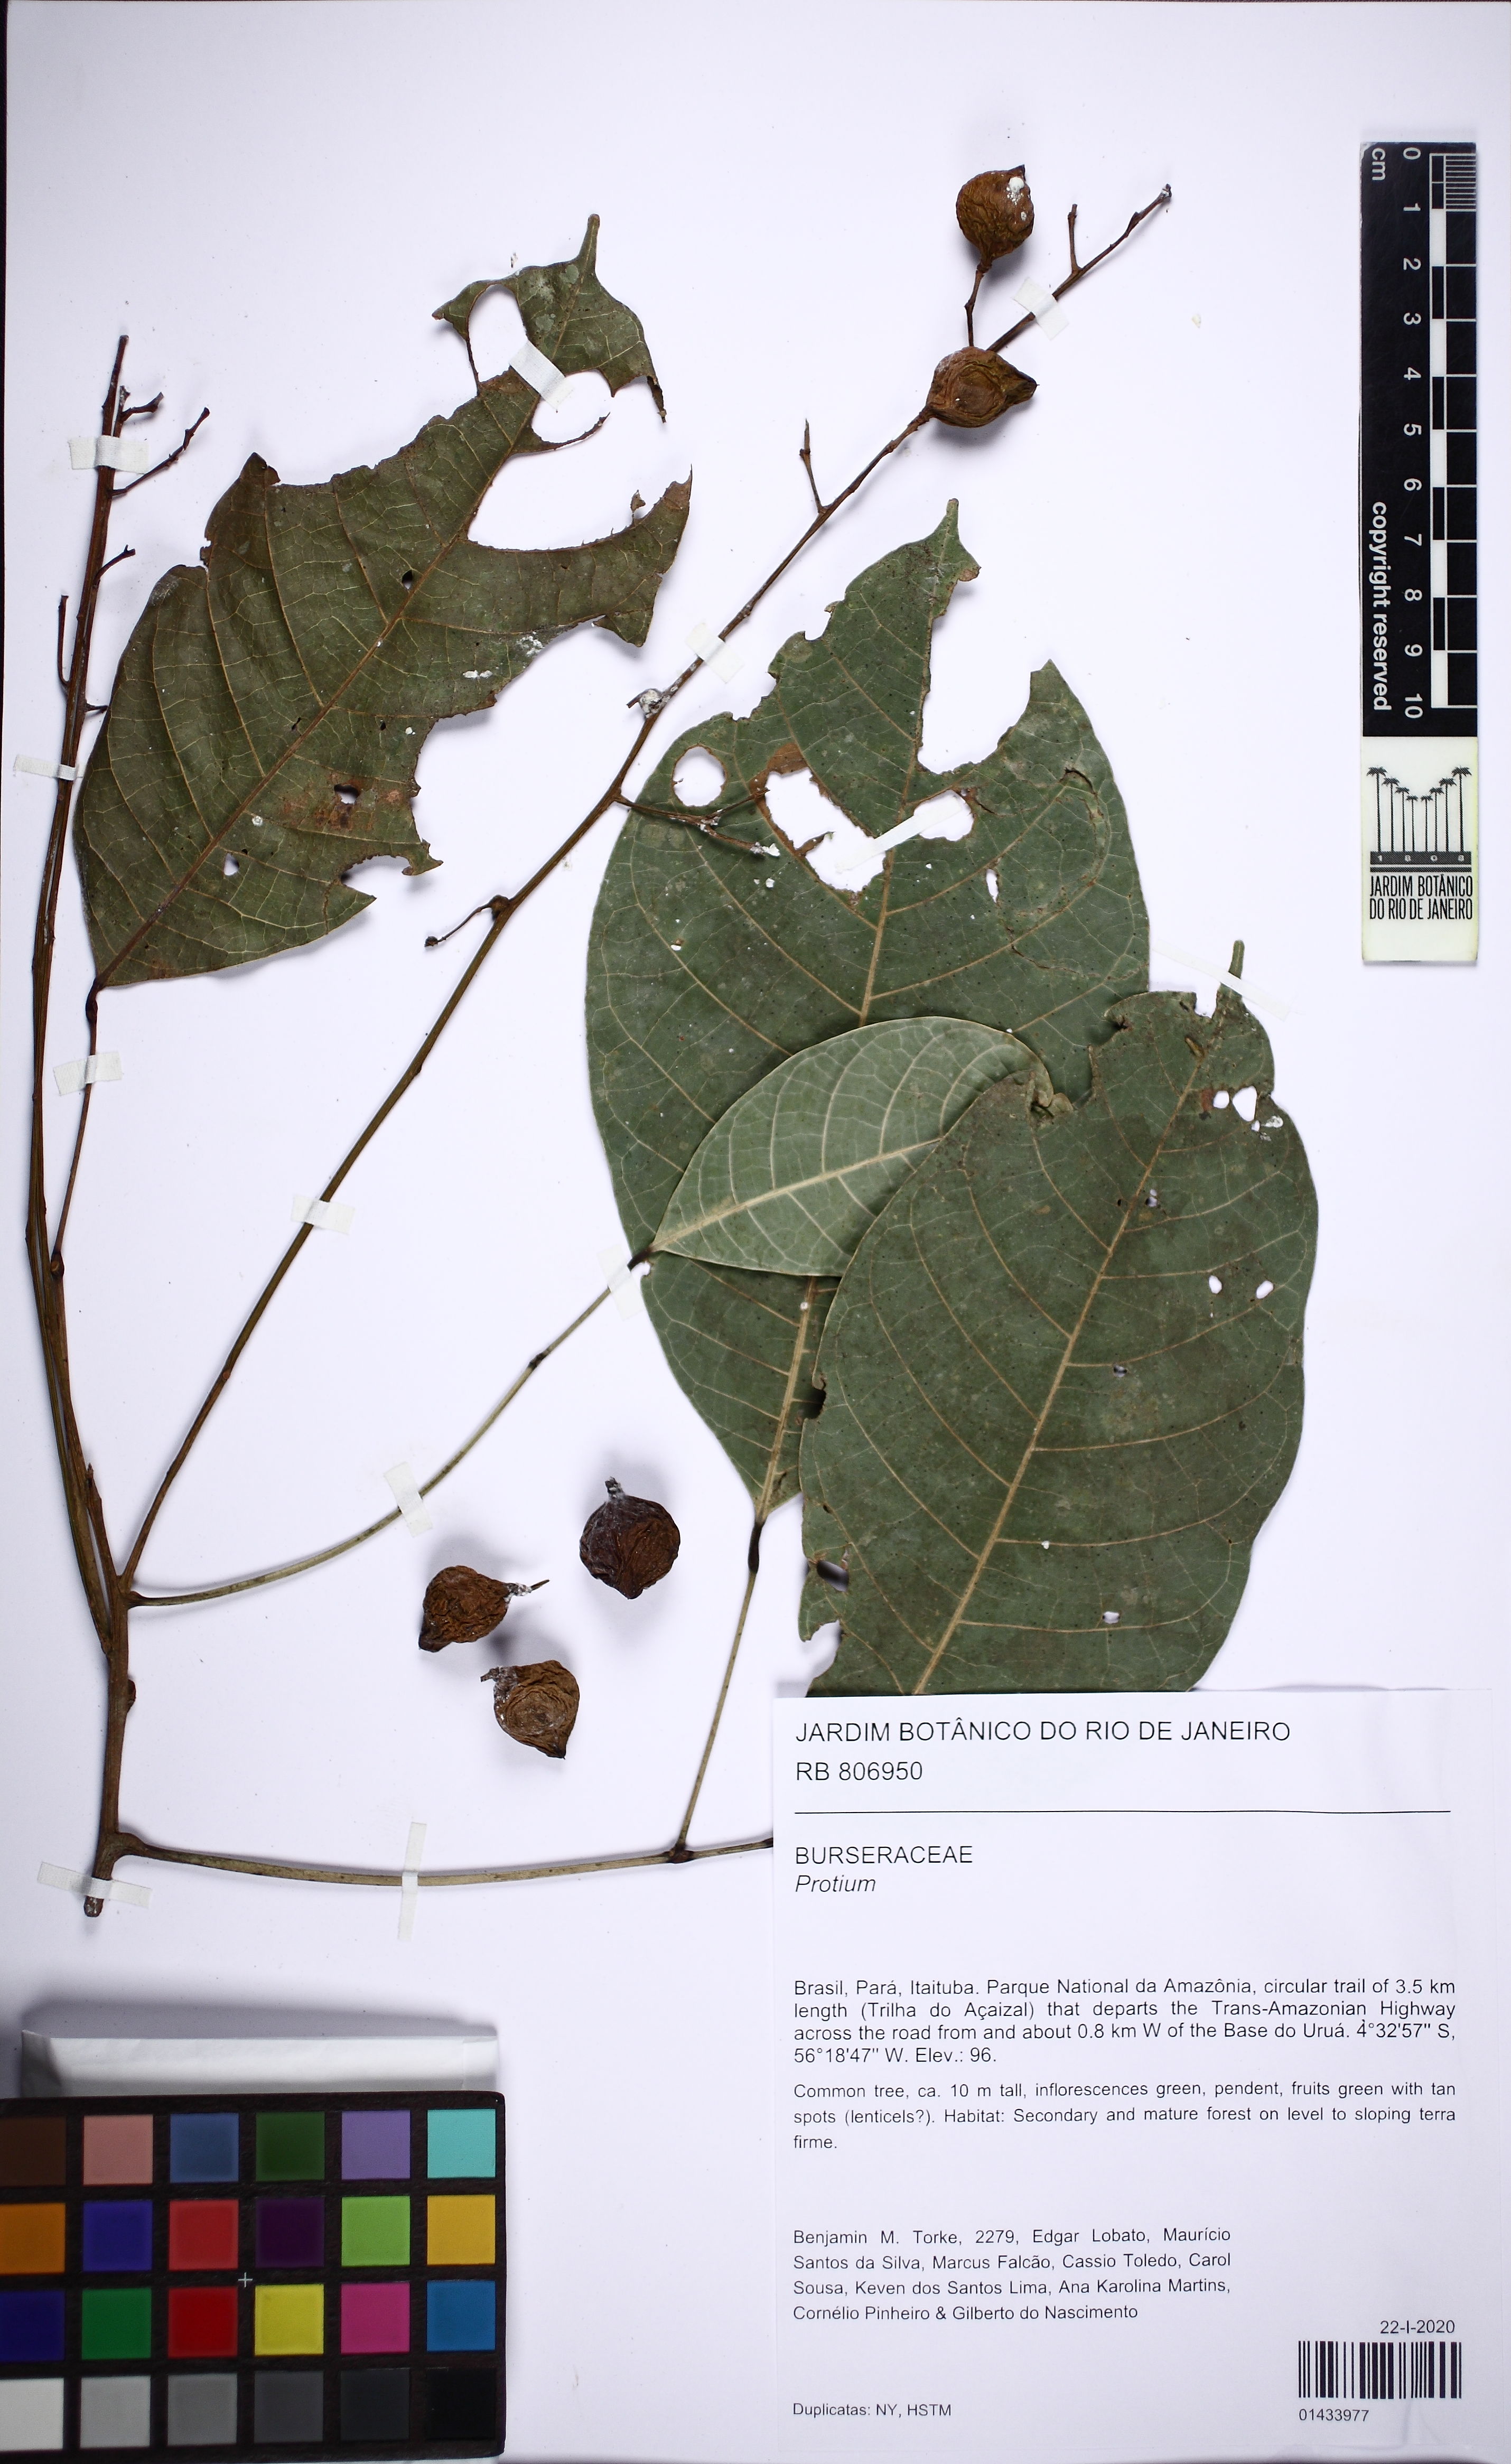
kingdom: Plantae
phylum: Tracheophyta
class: Magnoliopsida
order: Sapindales
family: Burseraceae
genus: Protium
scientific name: Protium divaricatum
